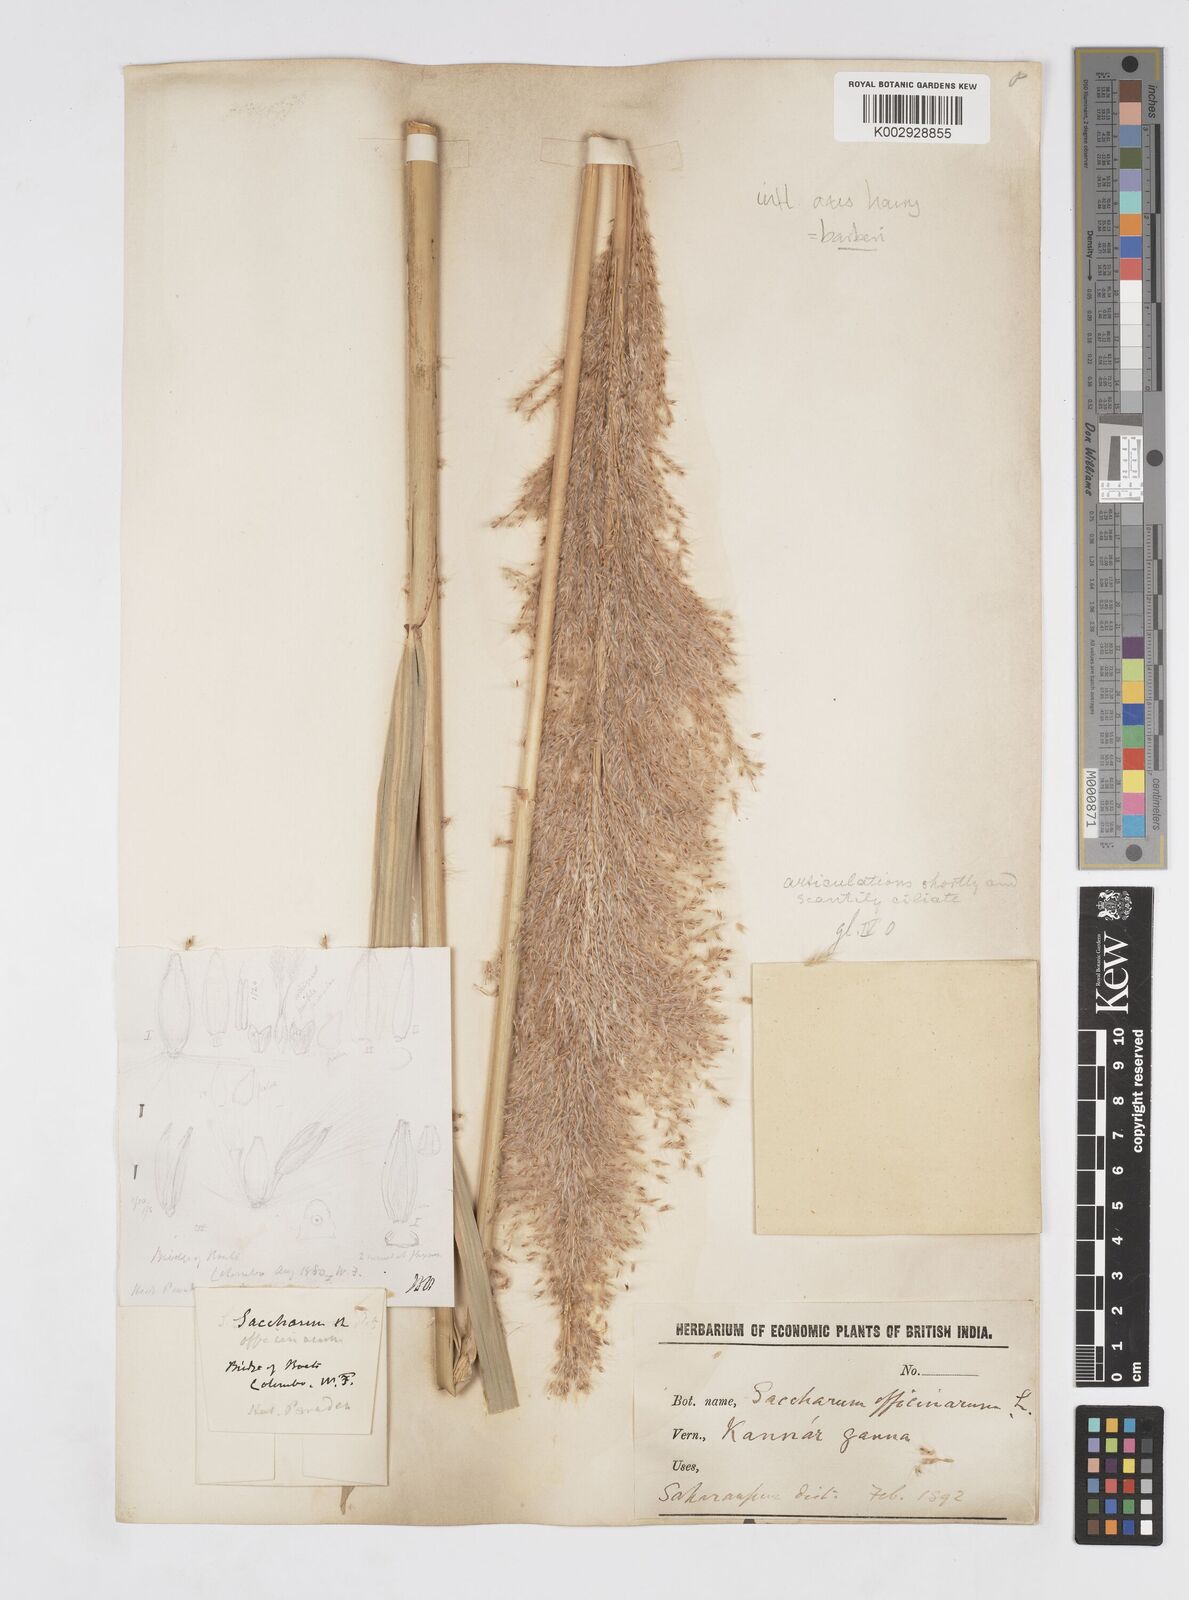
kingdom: Plantae
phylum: Tracheophyta
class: Liliopsida
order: Poales
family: Poaceae
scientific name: Poaceae
